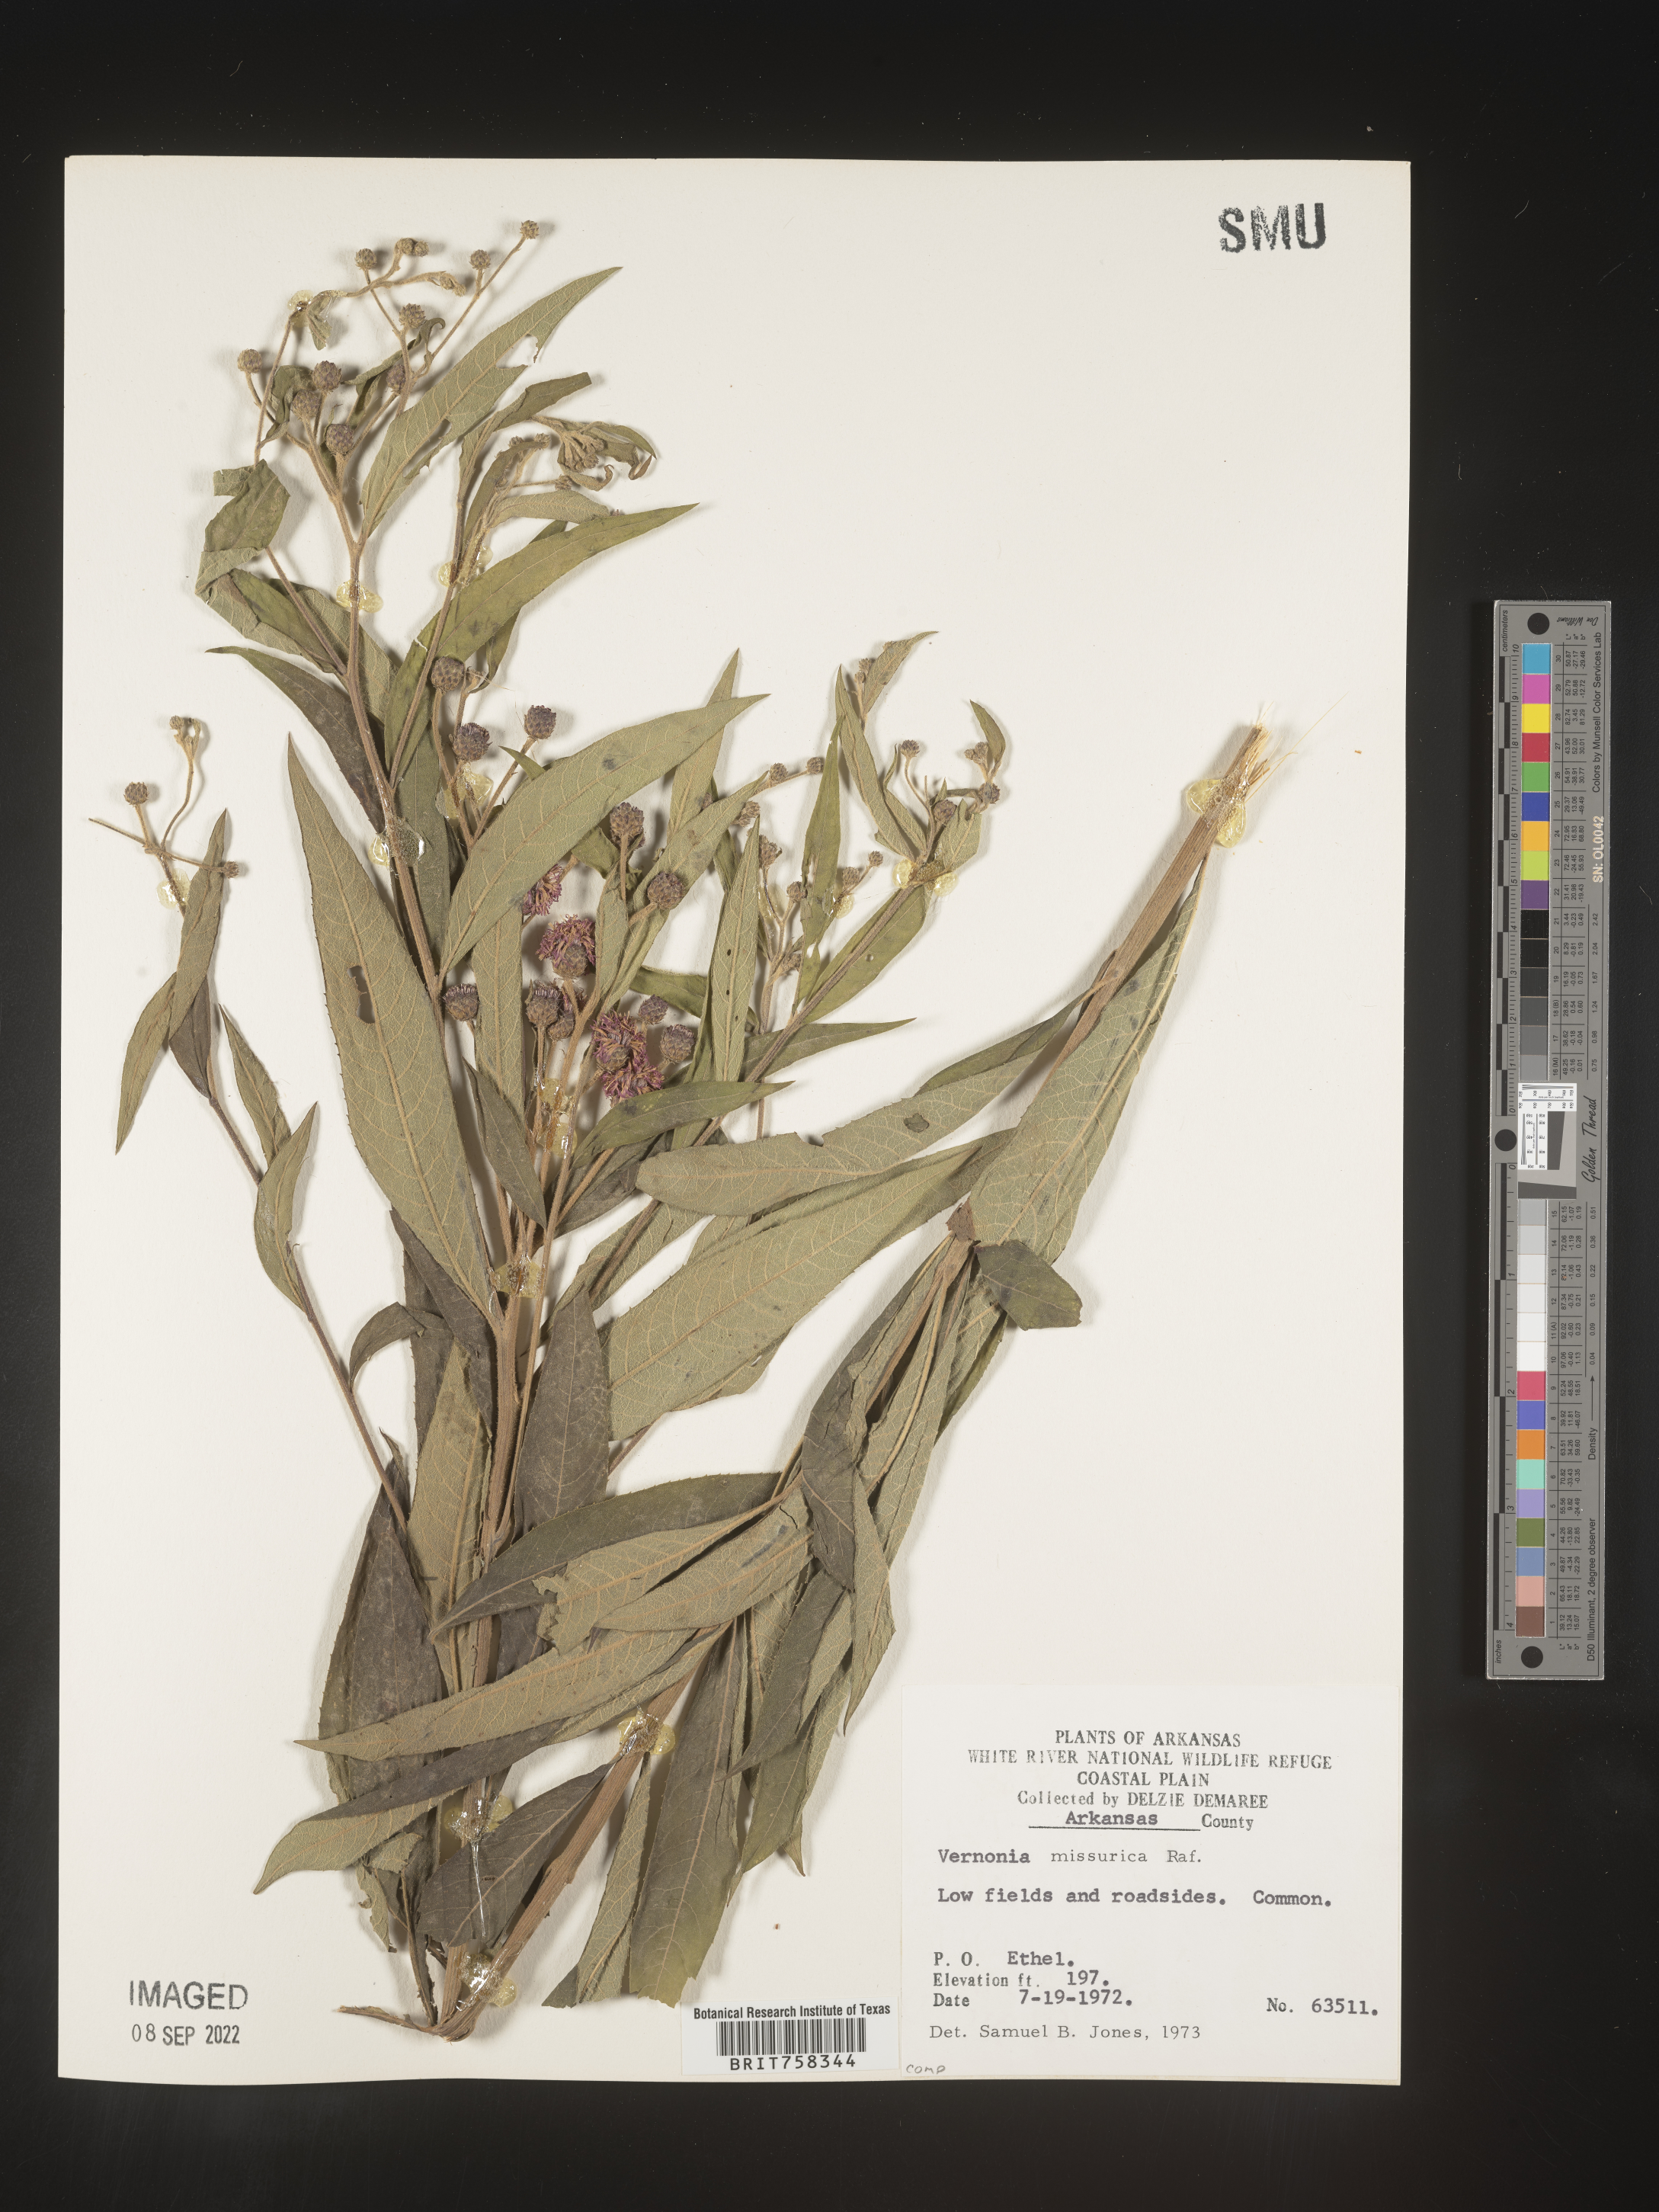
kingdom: Plantae
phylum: Tracheophyta
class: Magnoliopsida
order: Asterales
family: Asteraceae
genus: Vernonia
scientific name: Vernonia missurica
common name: Missouri ironweed
